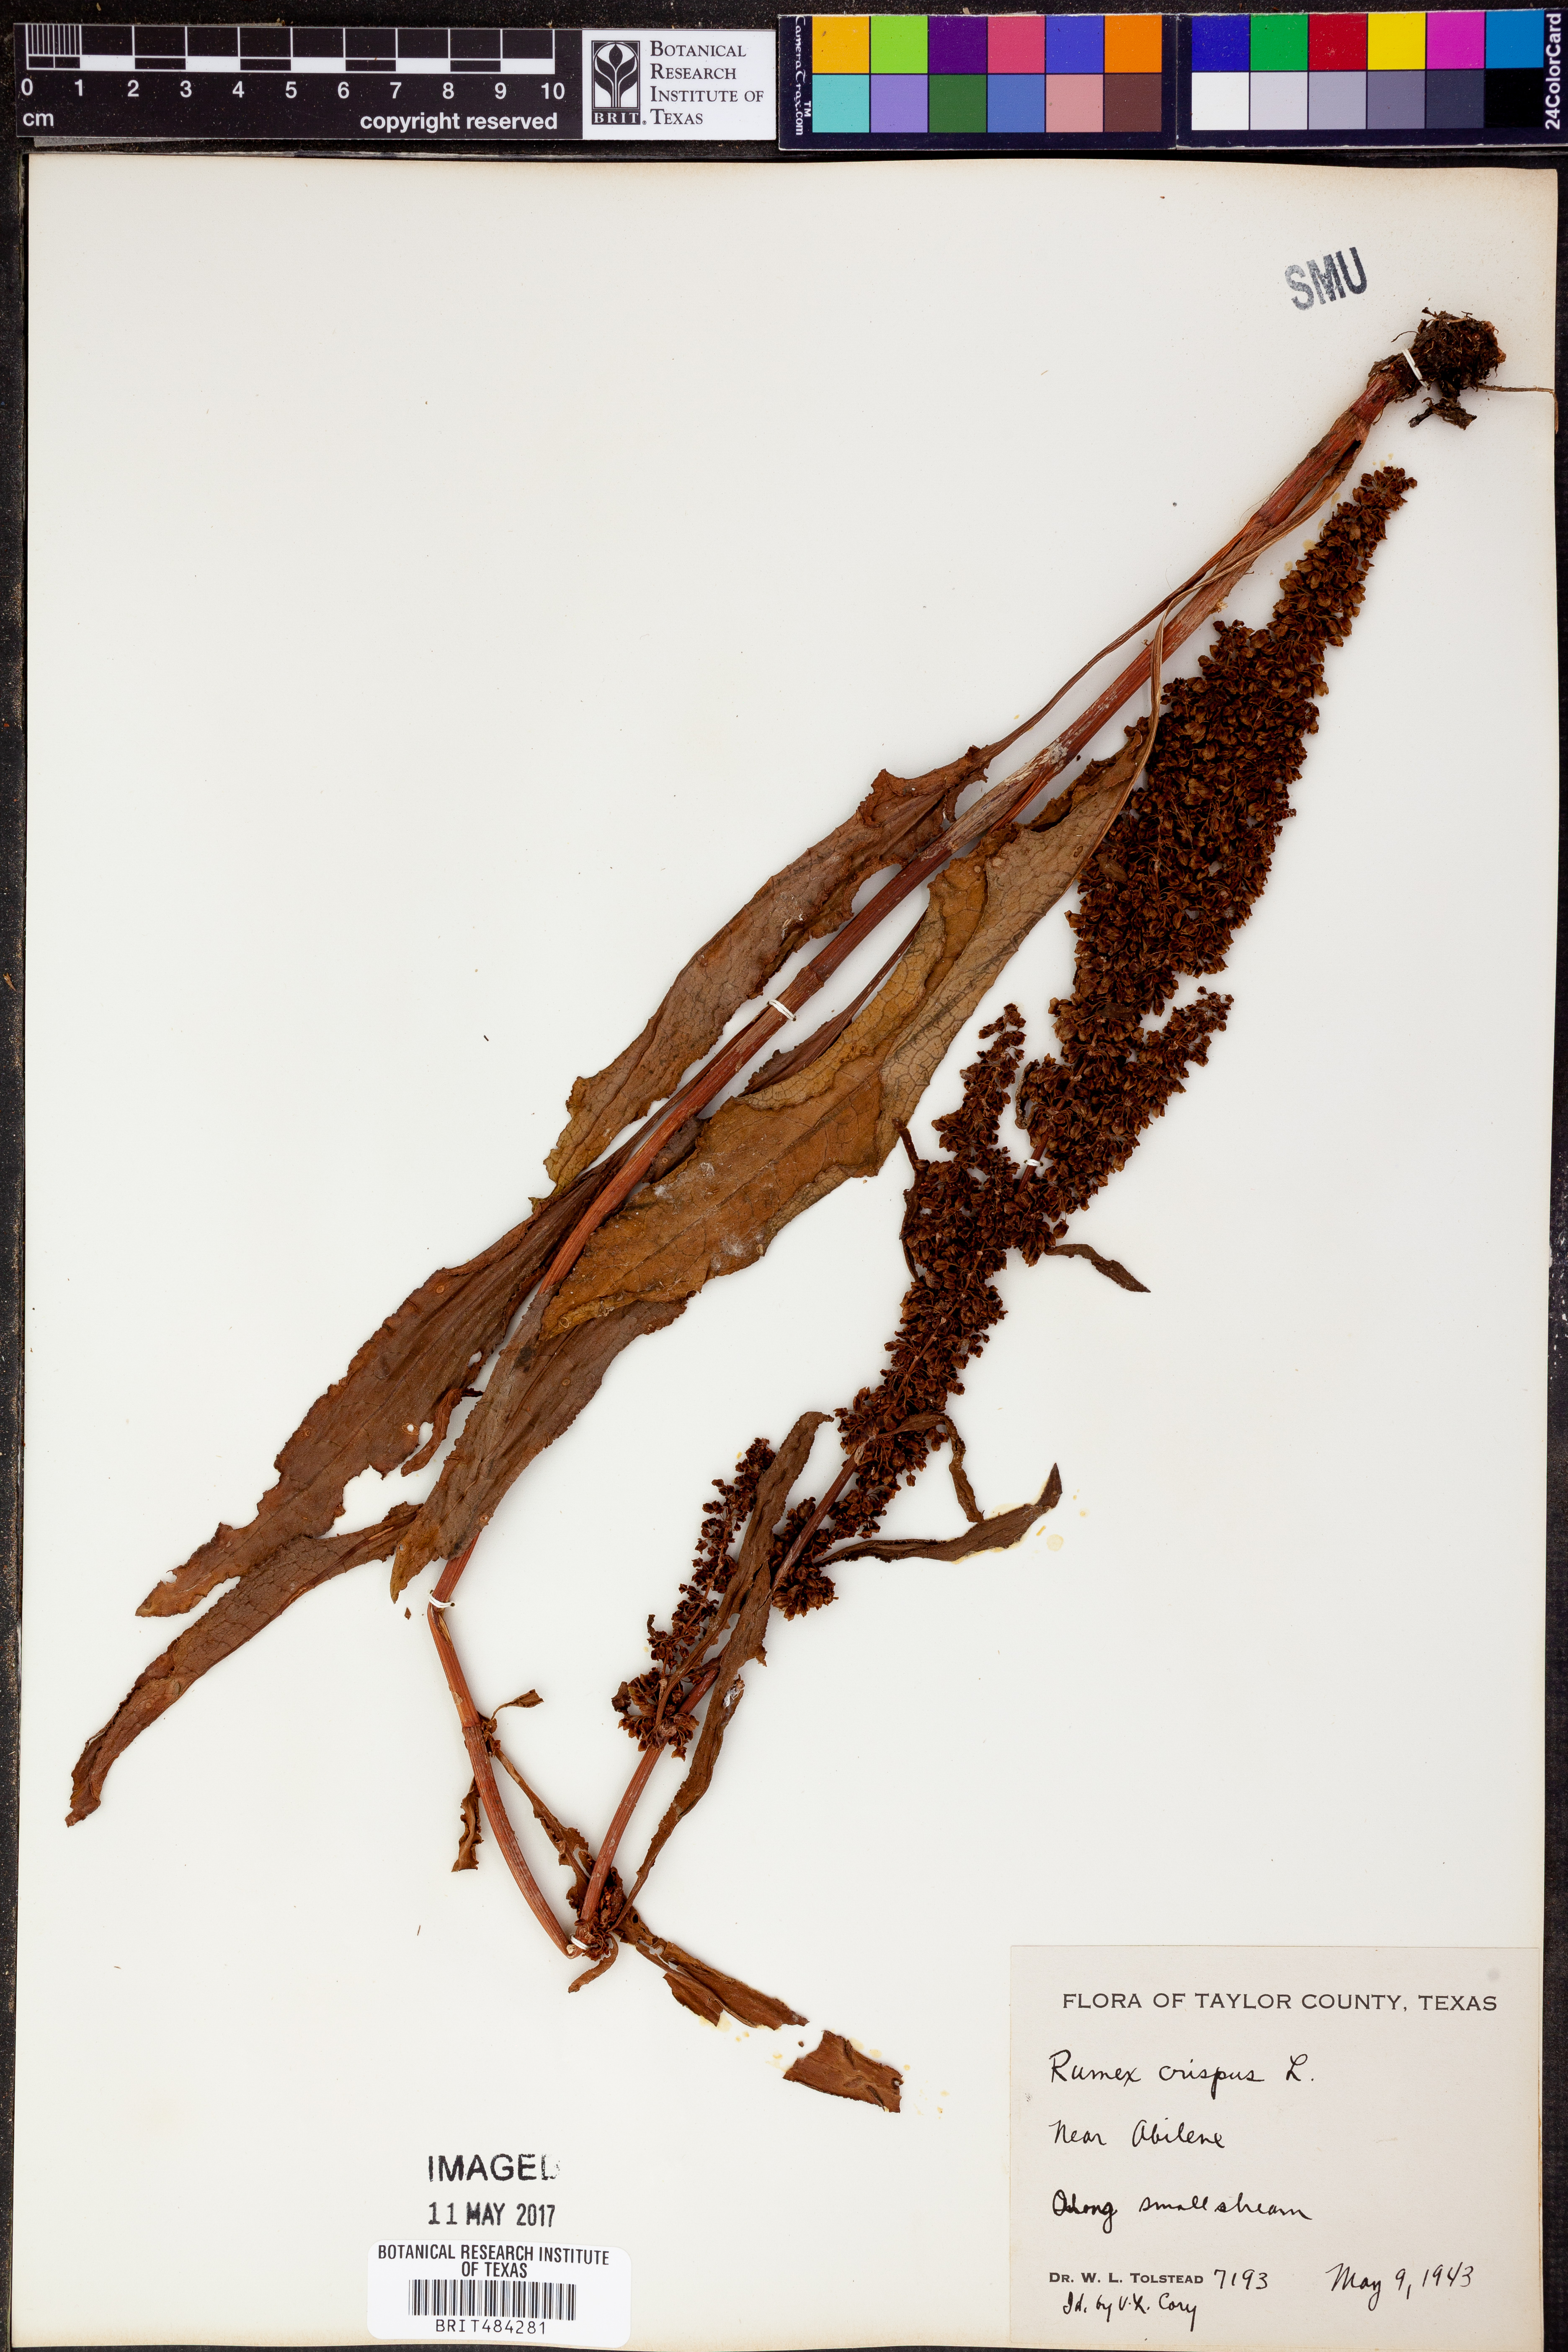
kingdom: Plantae
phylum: Tracheophyta
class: Magnoliopsida
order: Caryophyllales
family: Polygonaceae
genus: Rumex
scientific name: Rumex crispus
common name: Curled dock
